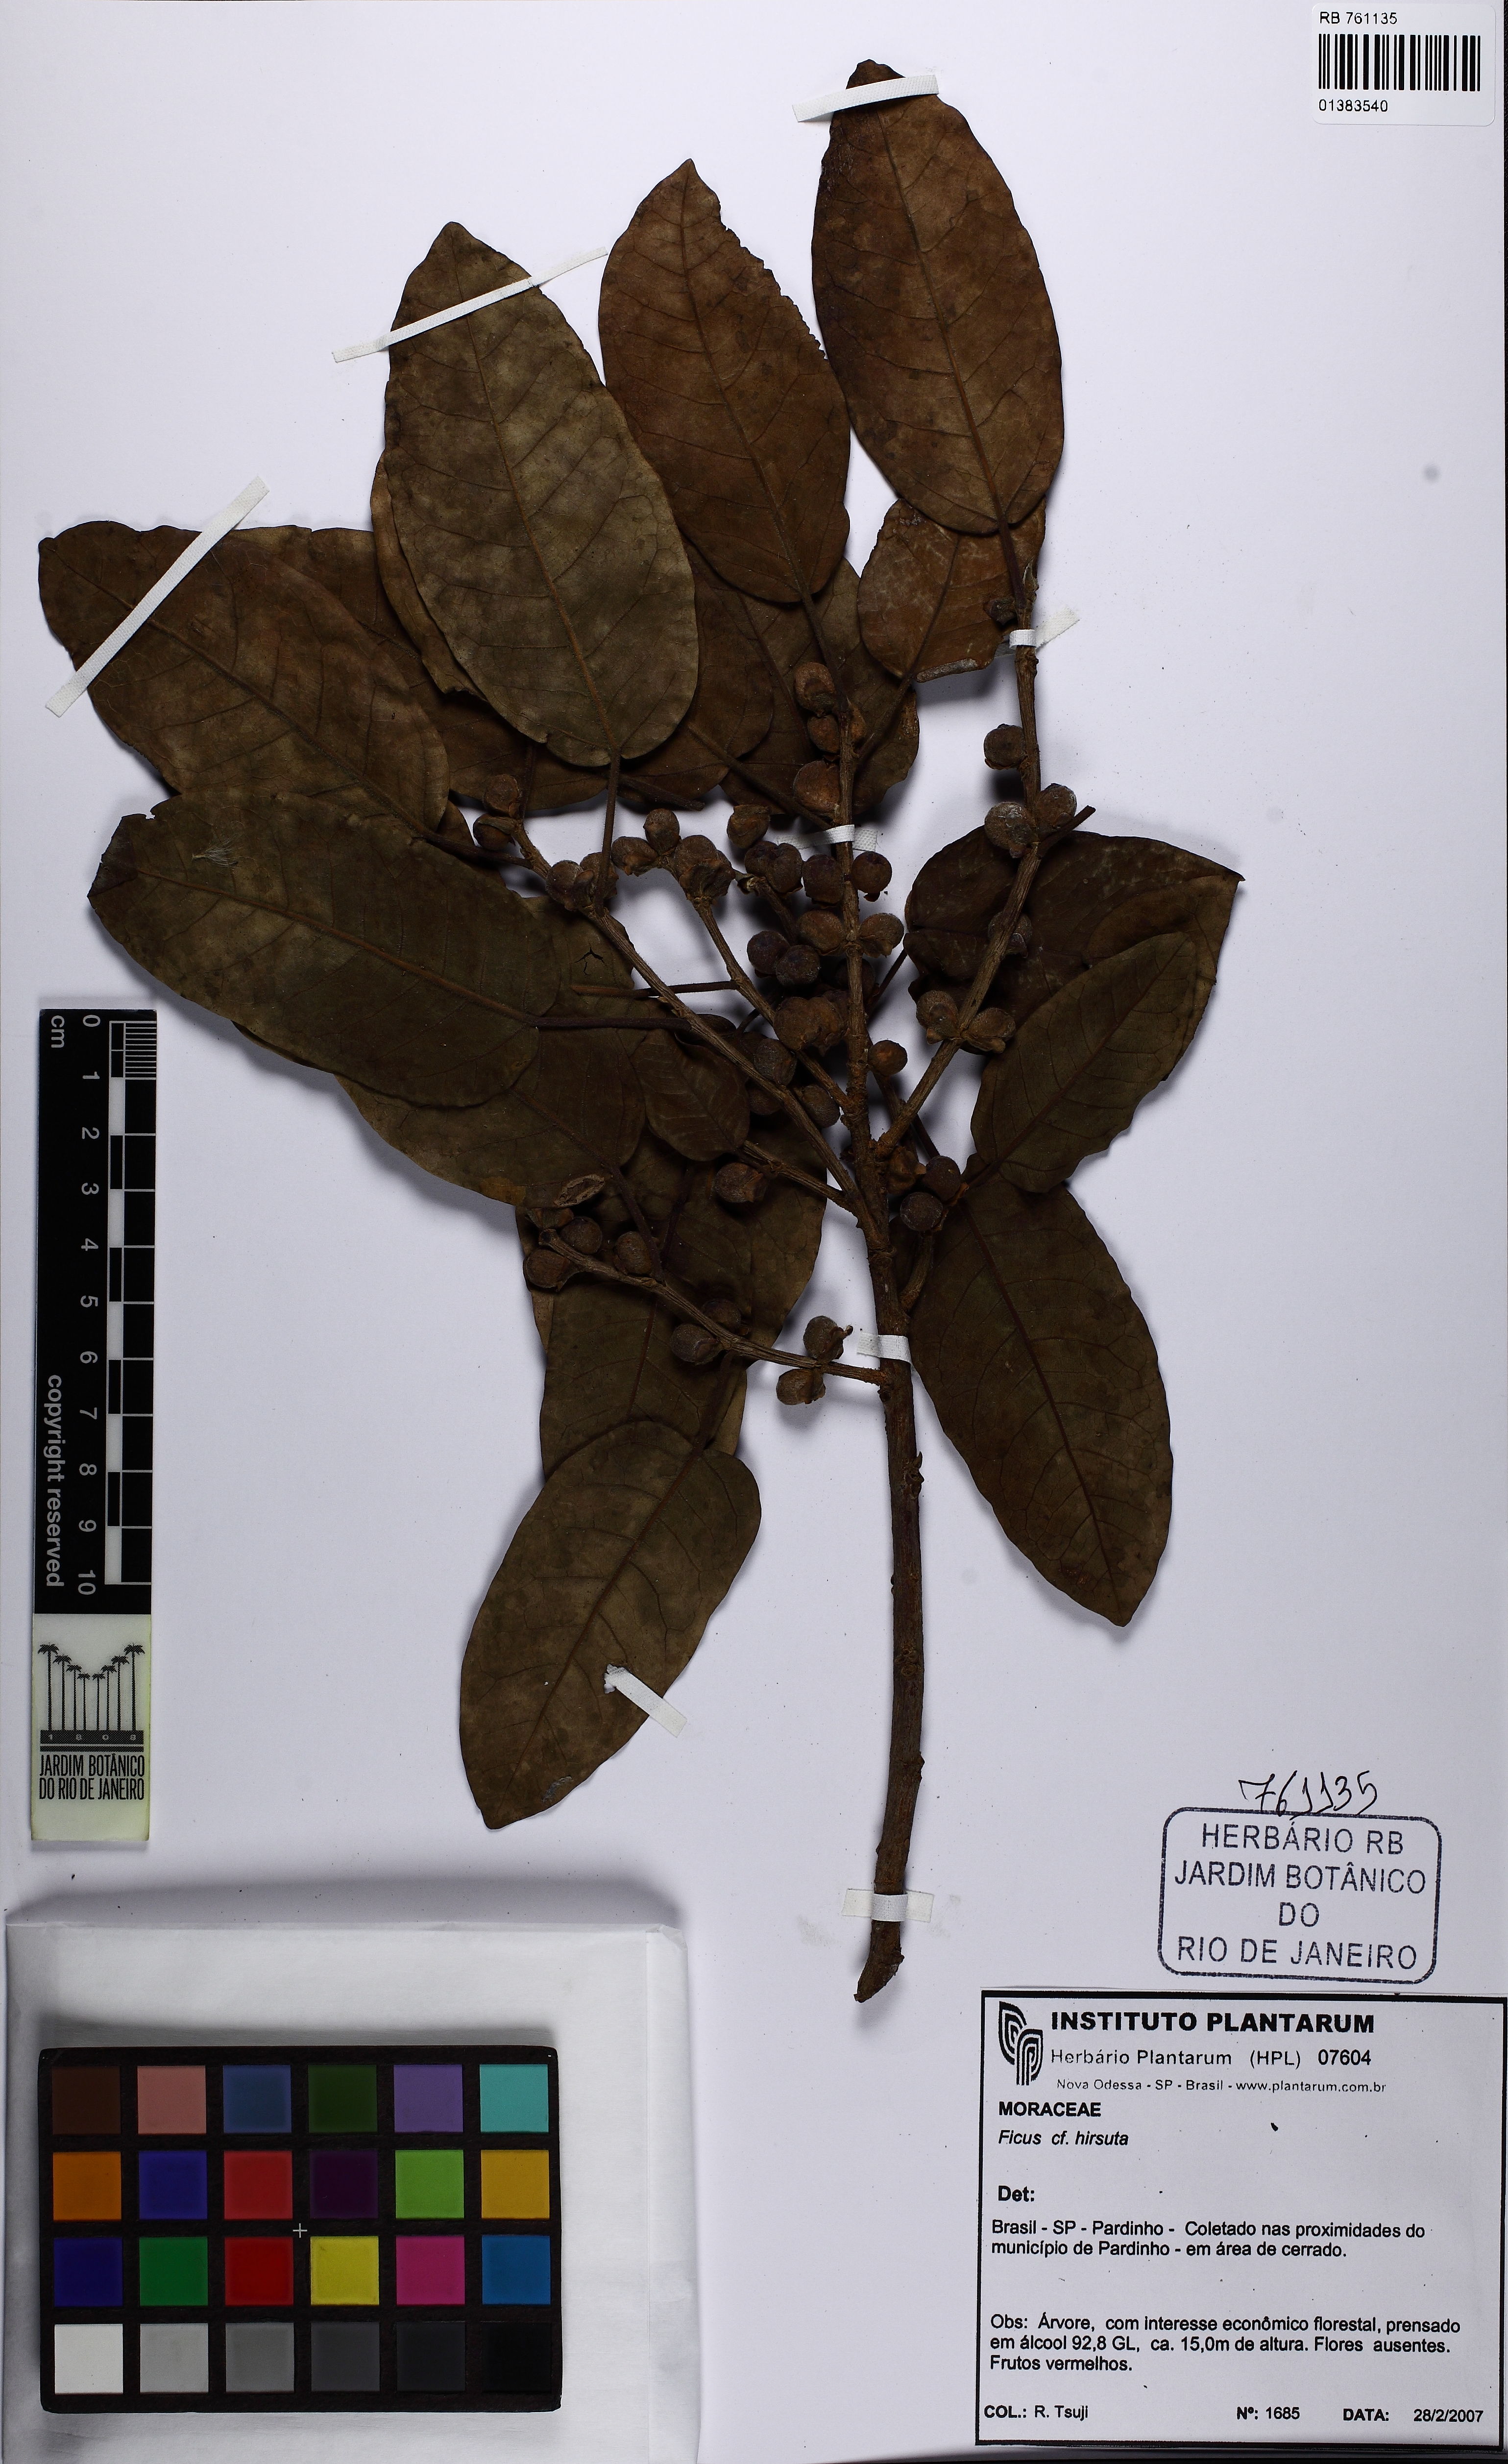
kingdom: Plantae
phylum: Tracheophyta
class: Magnoliopsida
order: Rosales
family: Moraceae
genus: Ficus
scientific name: Ficus hirsuta
